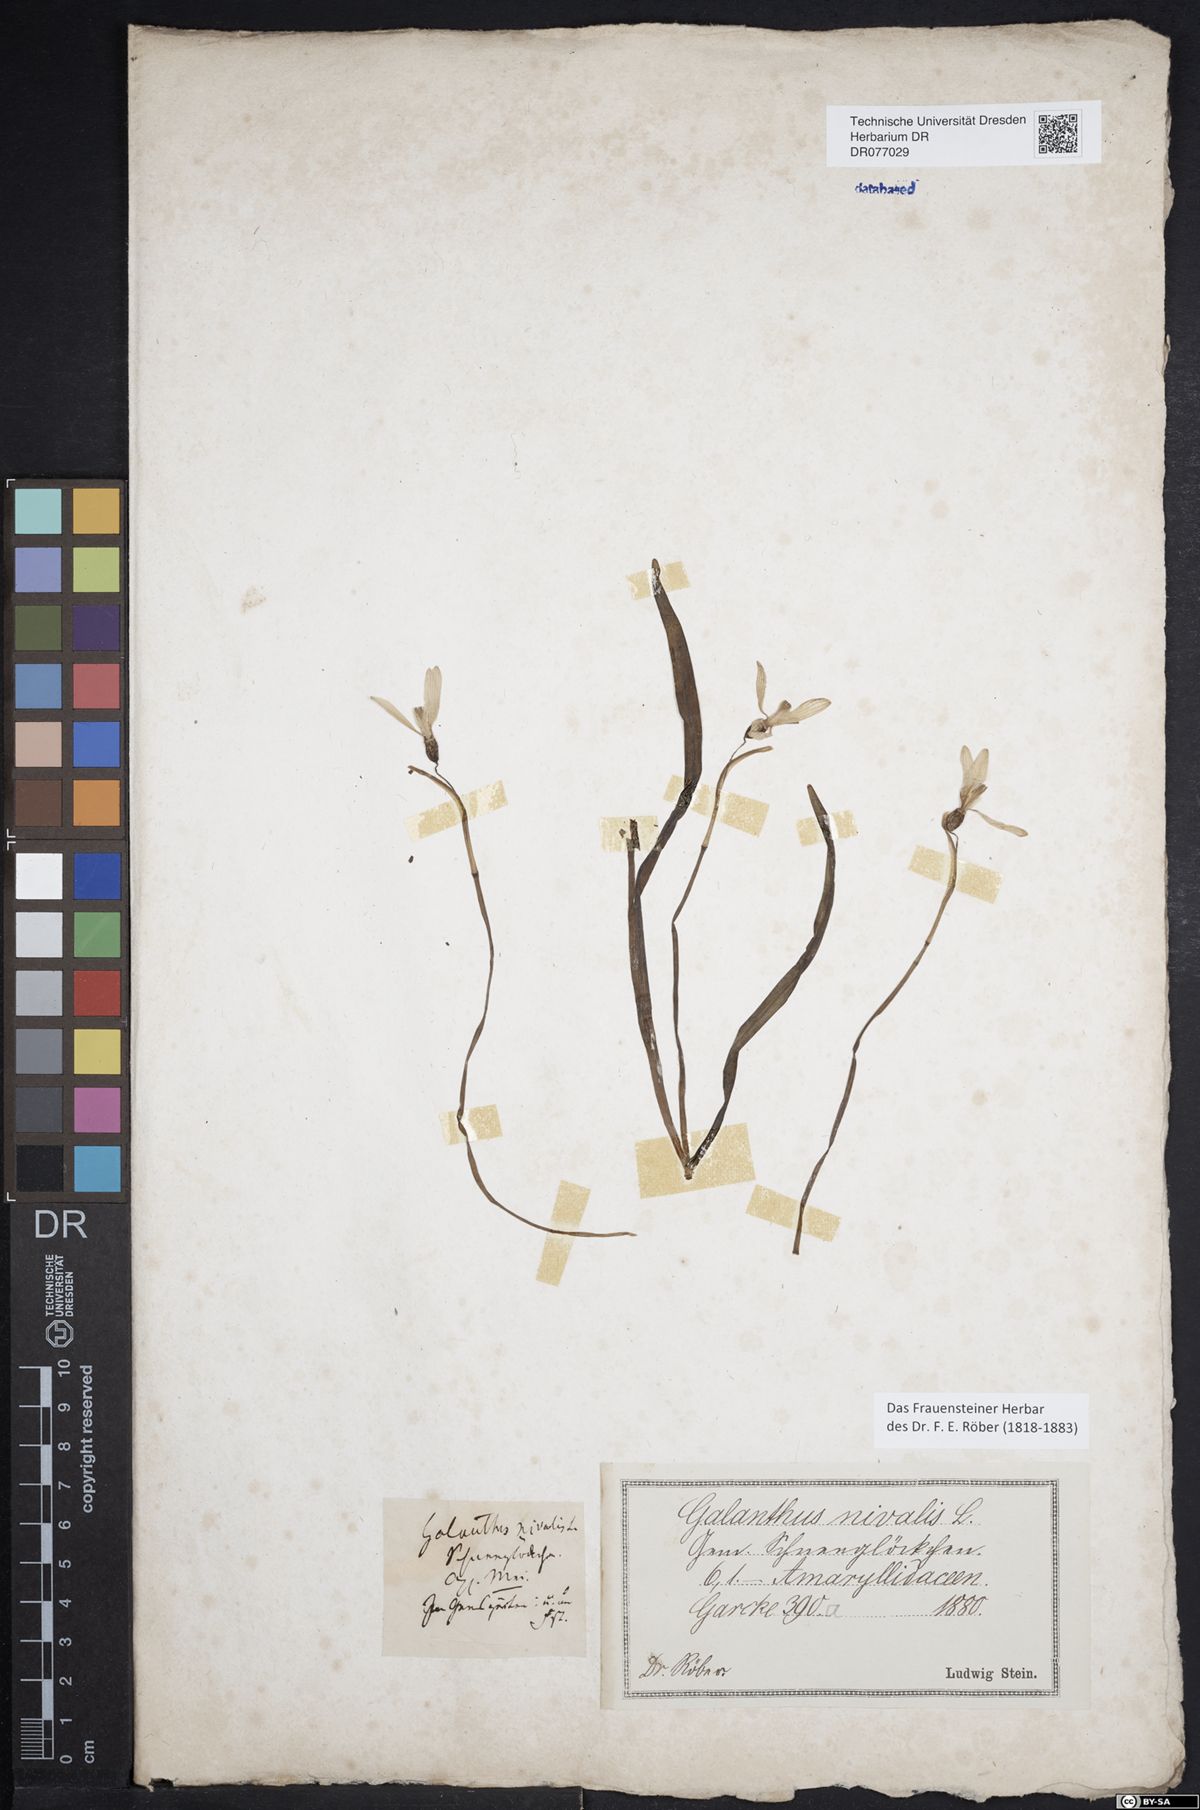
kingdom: Plantae
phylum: Tracheophyta
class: Liliopsida
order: Asparagales
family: Amaryllidaceae
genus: Galanthus
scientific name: Galanthus nivalis
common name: Snowdrop
